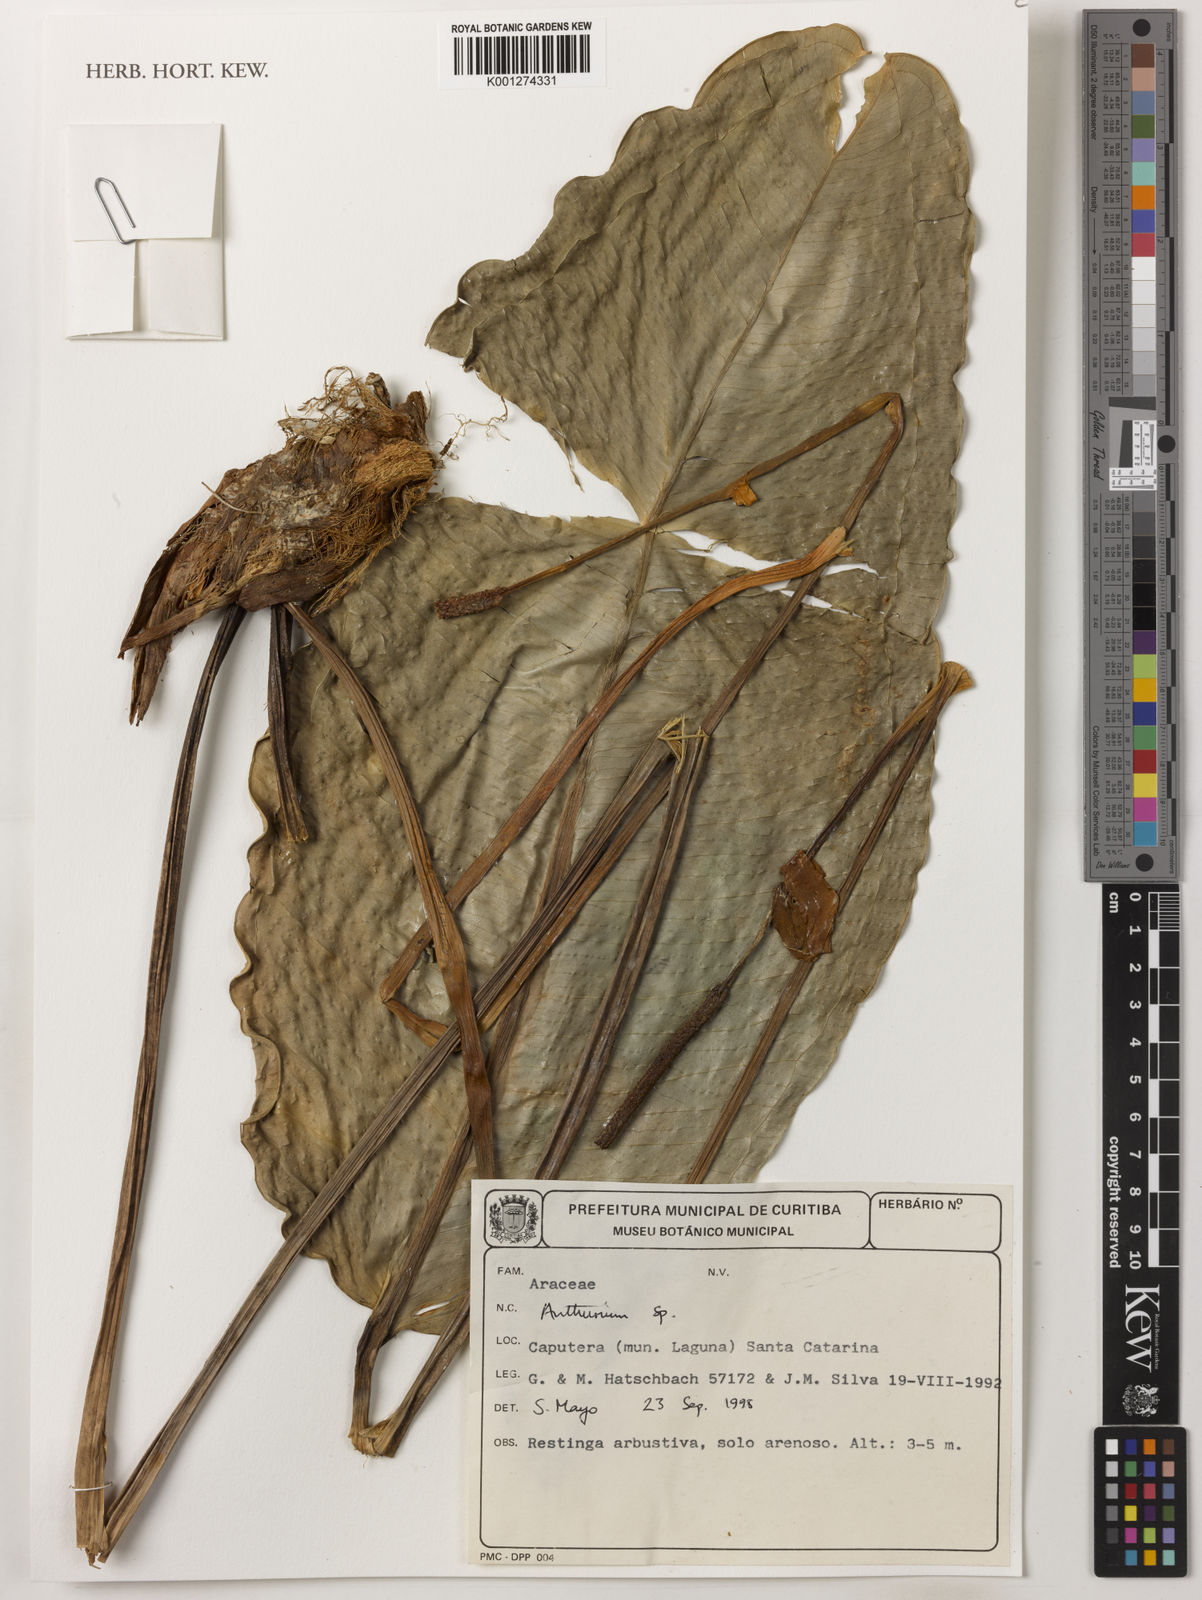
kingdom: Plantae
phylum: Tracheophyta
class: Liliopsida
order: Alismatales
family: Araceae
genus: Anthurium
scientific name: Anthurium
